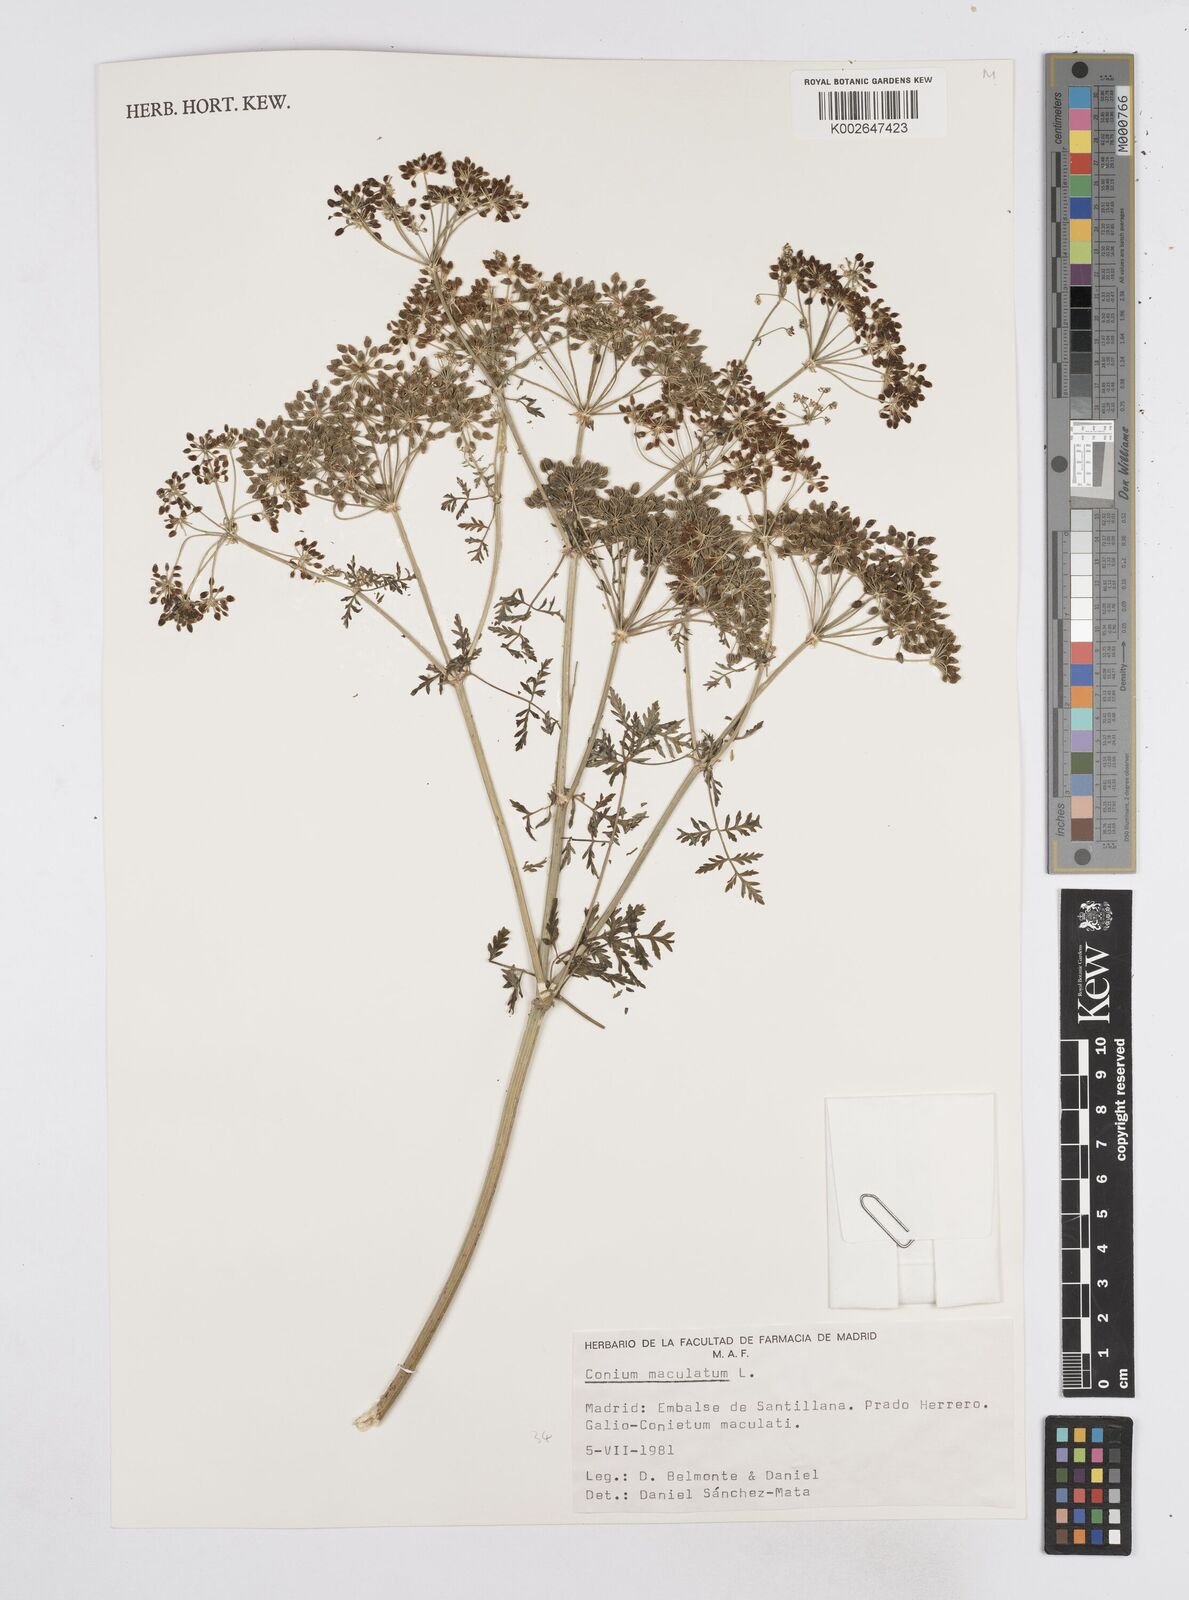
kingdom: Plantae
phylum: Tracheophyta
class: Magnoliopsida
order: Apiales
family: Apiaceae
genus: Conium
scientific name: Conium maculatum
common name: Hemlock
